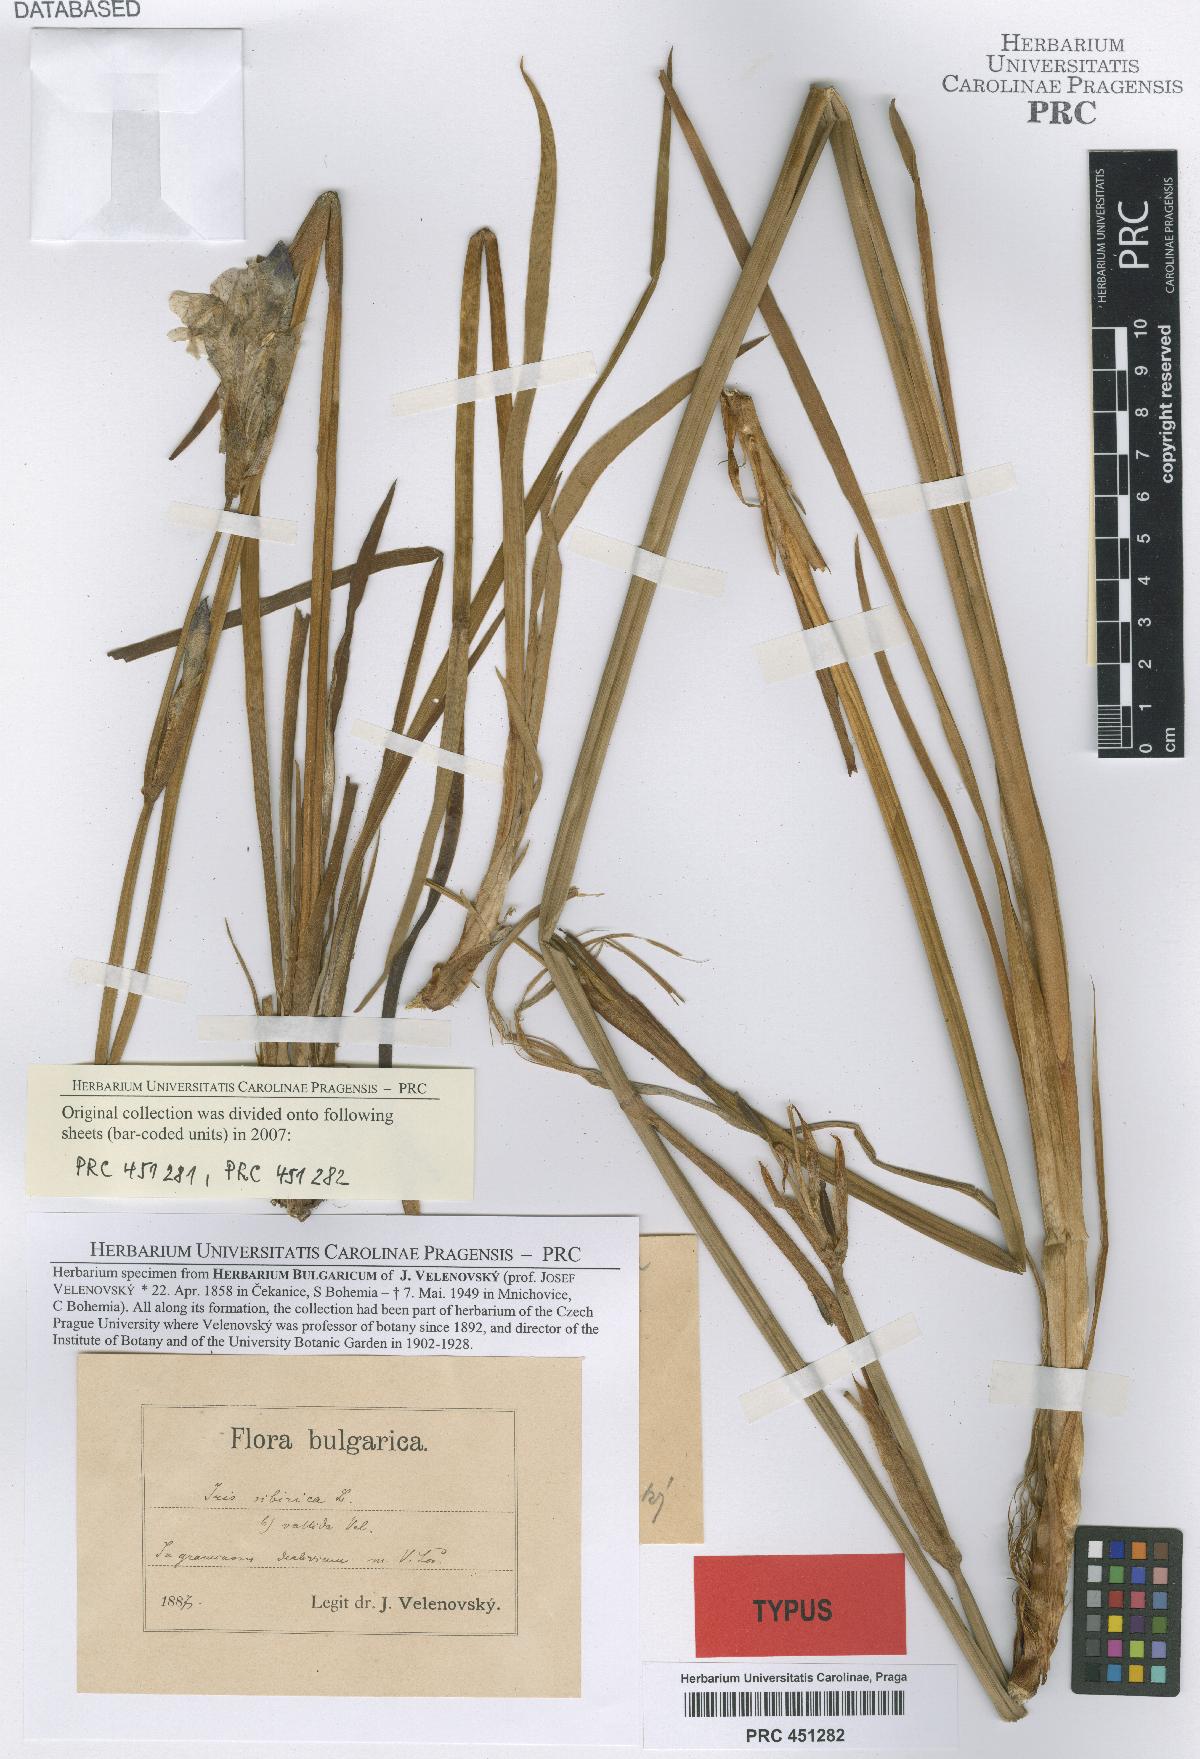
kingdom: Plantae
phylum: Tracheophyta
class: Liliopsida
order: Asparagales
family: Iridaceae
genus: Iris
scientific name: Iris sibirica
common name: Siberian iris
